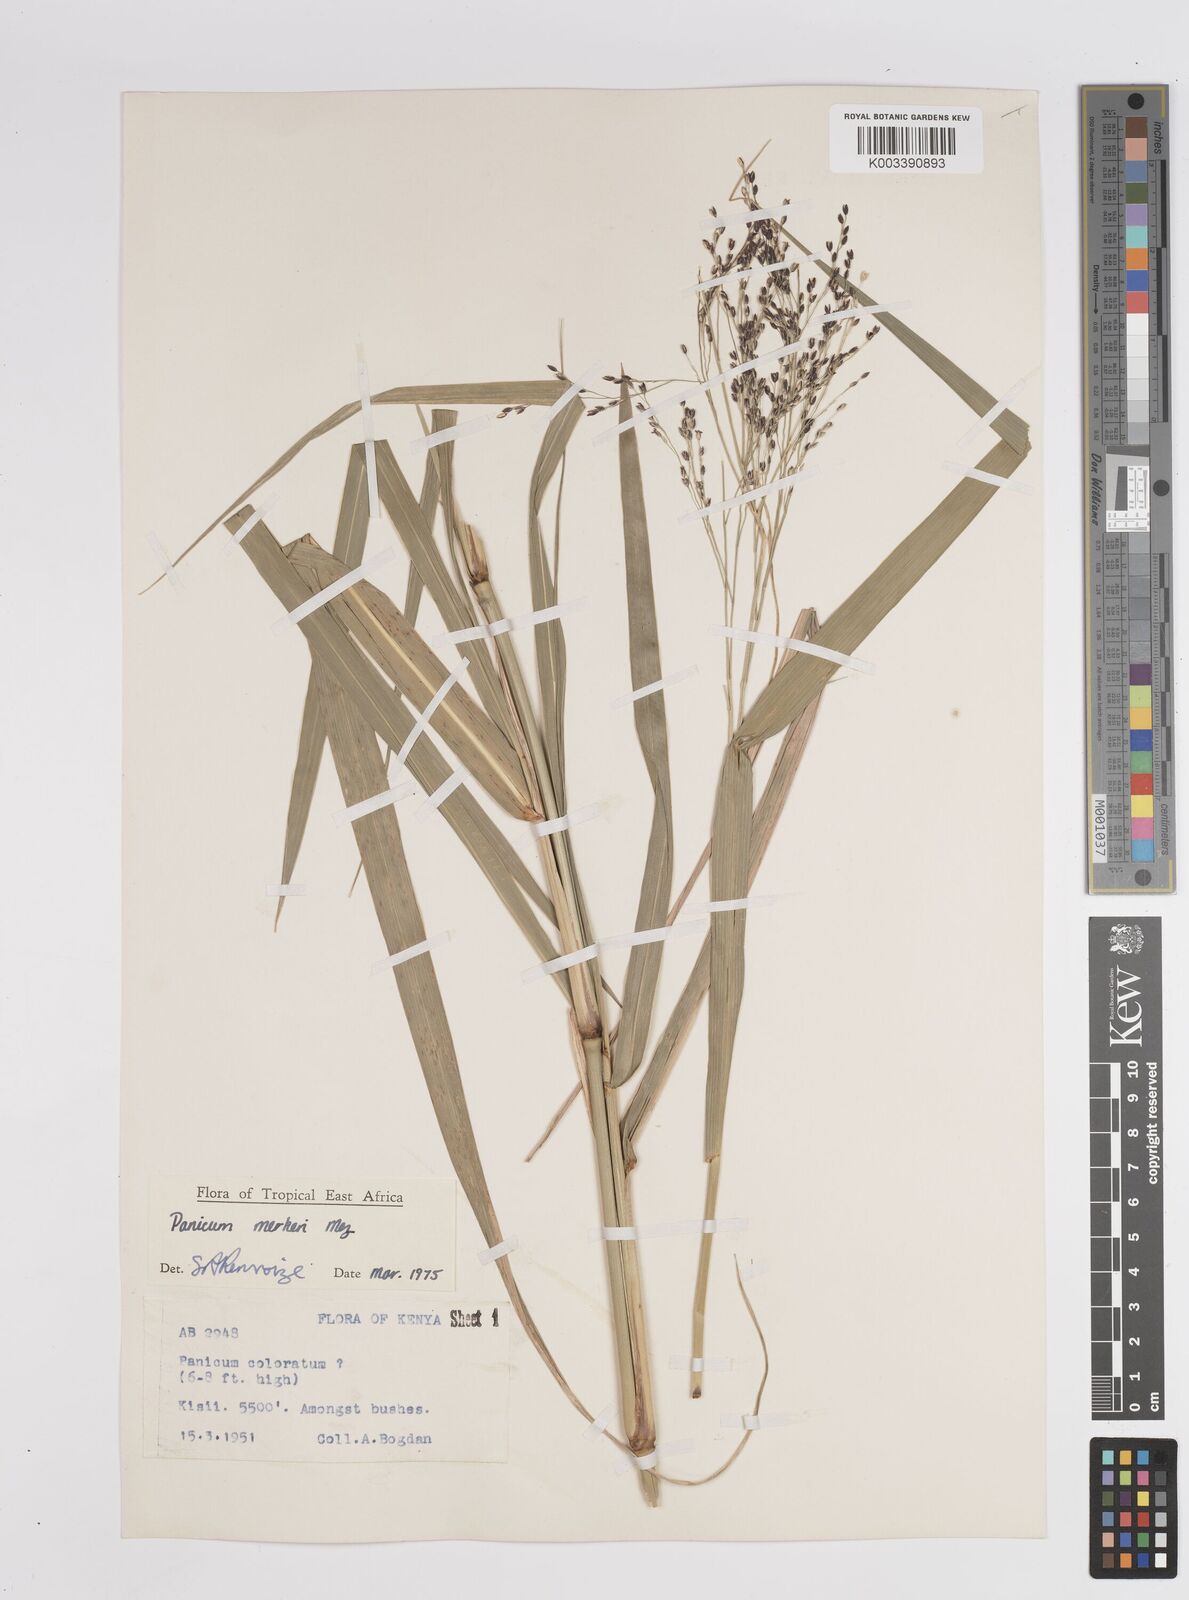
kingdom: Plantae
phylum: Tracheophyta
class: Liliopsida
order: Poales
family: Poaceae
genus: Panicum
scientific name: Panicum merkeri
